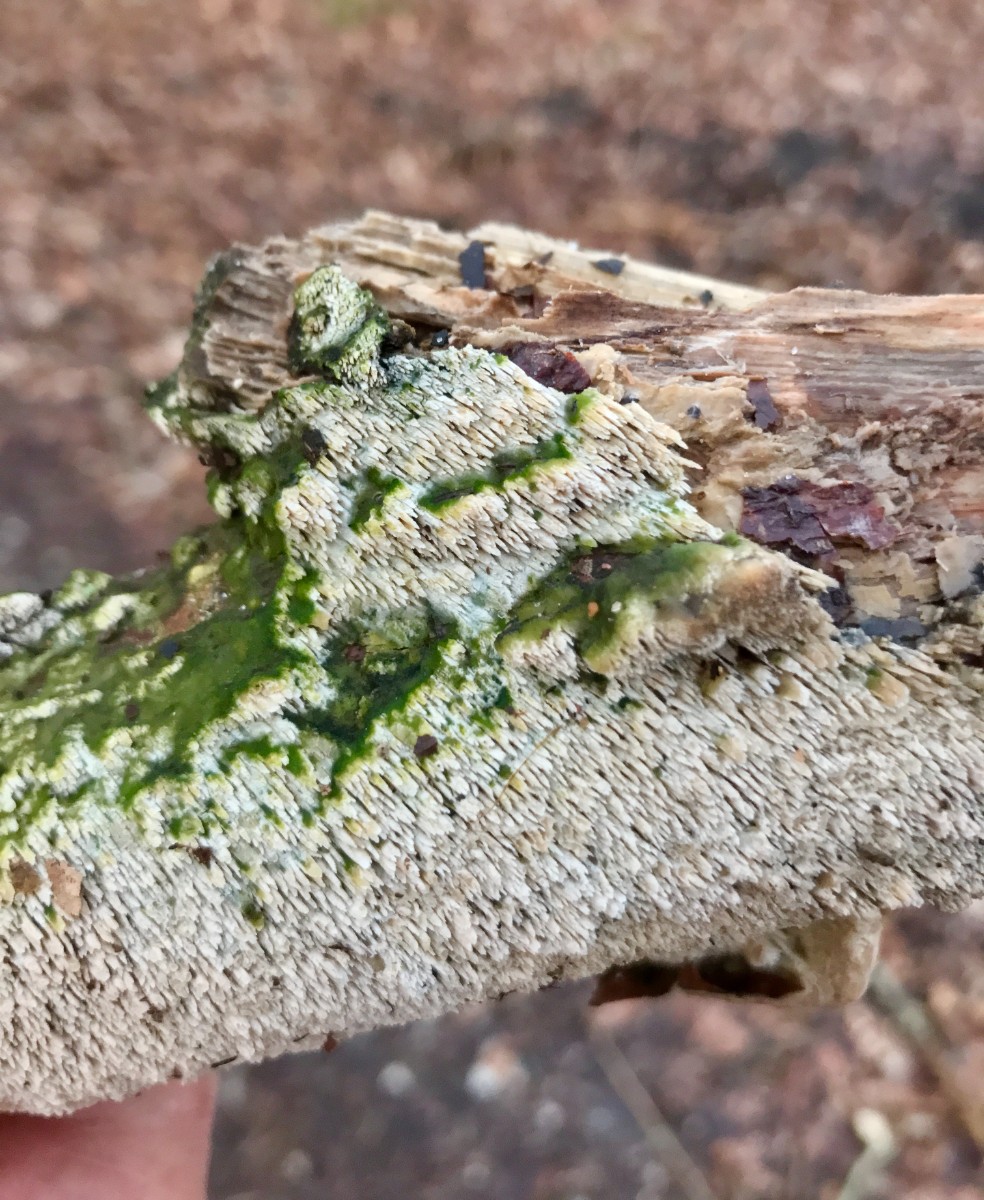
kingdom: Fungi
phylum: Basidiomycota
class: Agaricomycetes
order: Hymenochaetales
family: Schizoporaceae
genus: Schizopora
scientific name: Schizopora paradoxa
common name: hvid tandsvamp
